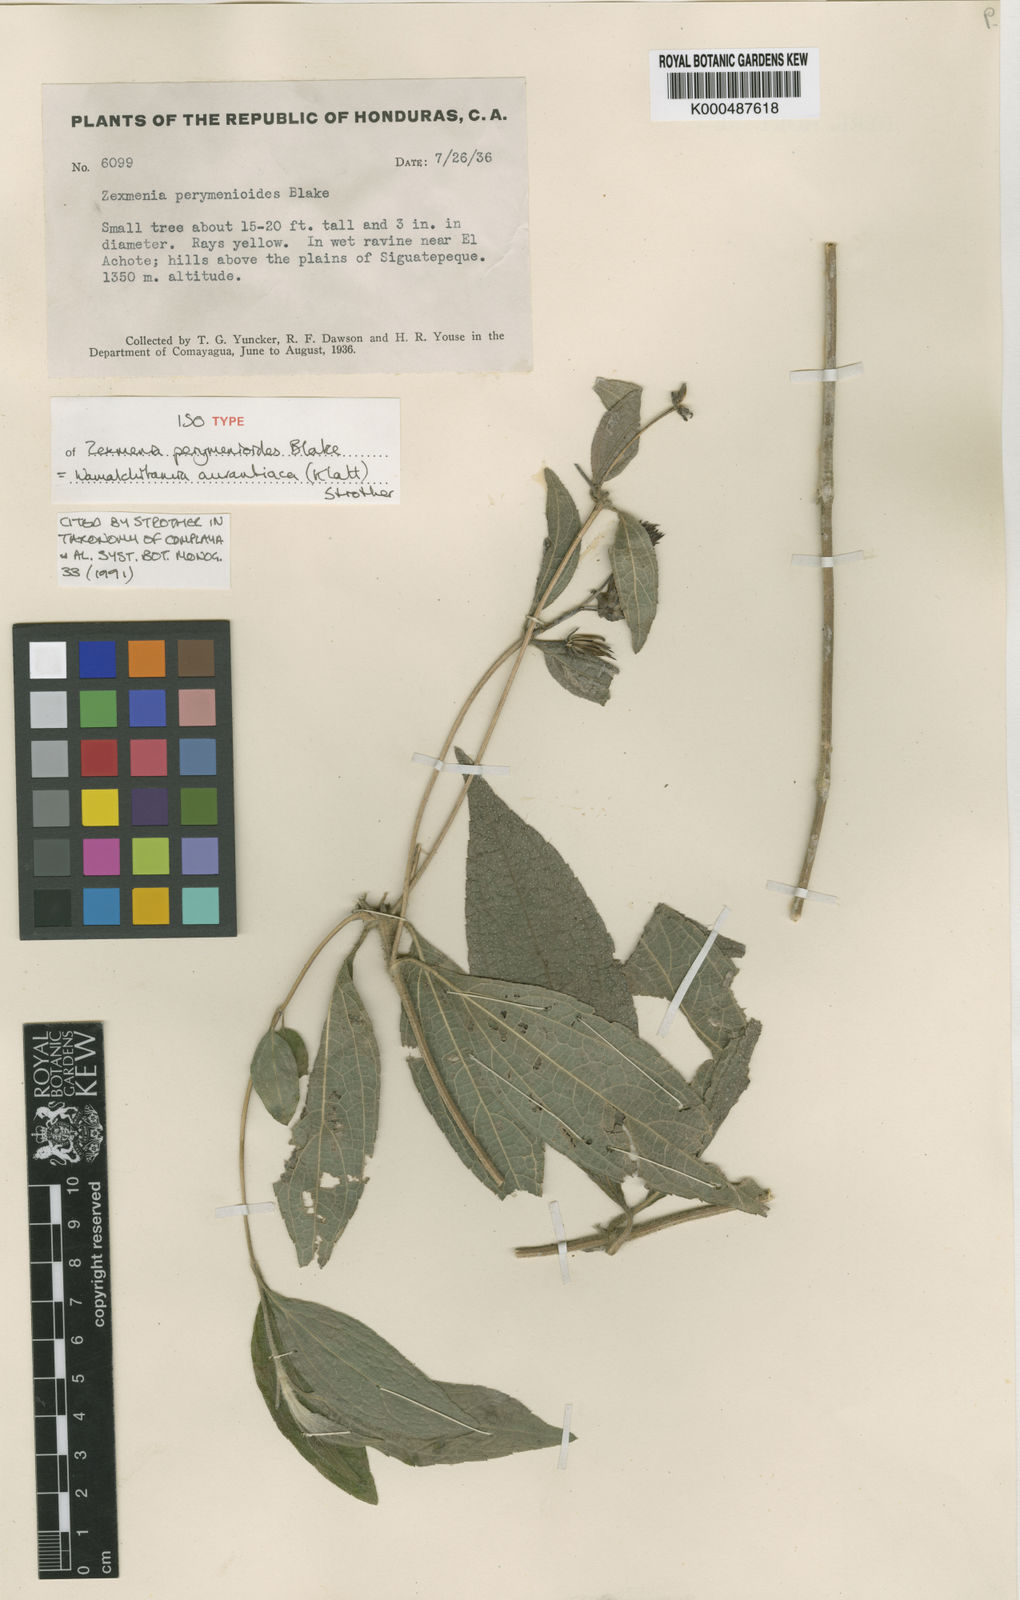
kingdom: Plantae
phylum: Tracheophyta
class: Magnoliopsida
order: Asterales
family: Asteraceae
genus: Wamalchitamia
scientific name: Wamalchitamia aurantiaca
